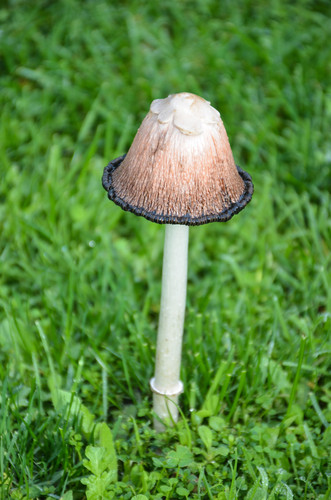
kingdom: Fungi
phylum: Basidiomycota
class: Agaricomycetes
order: Agaricales
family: Agaricaceae
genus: Coprinus
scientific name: Coprinus comatus
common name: Lawyer's wig
